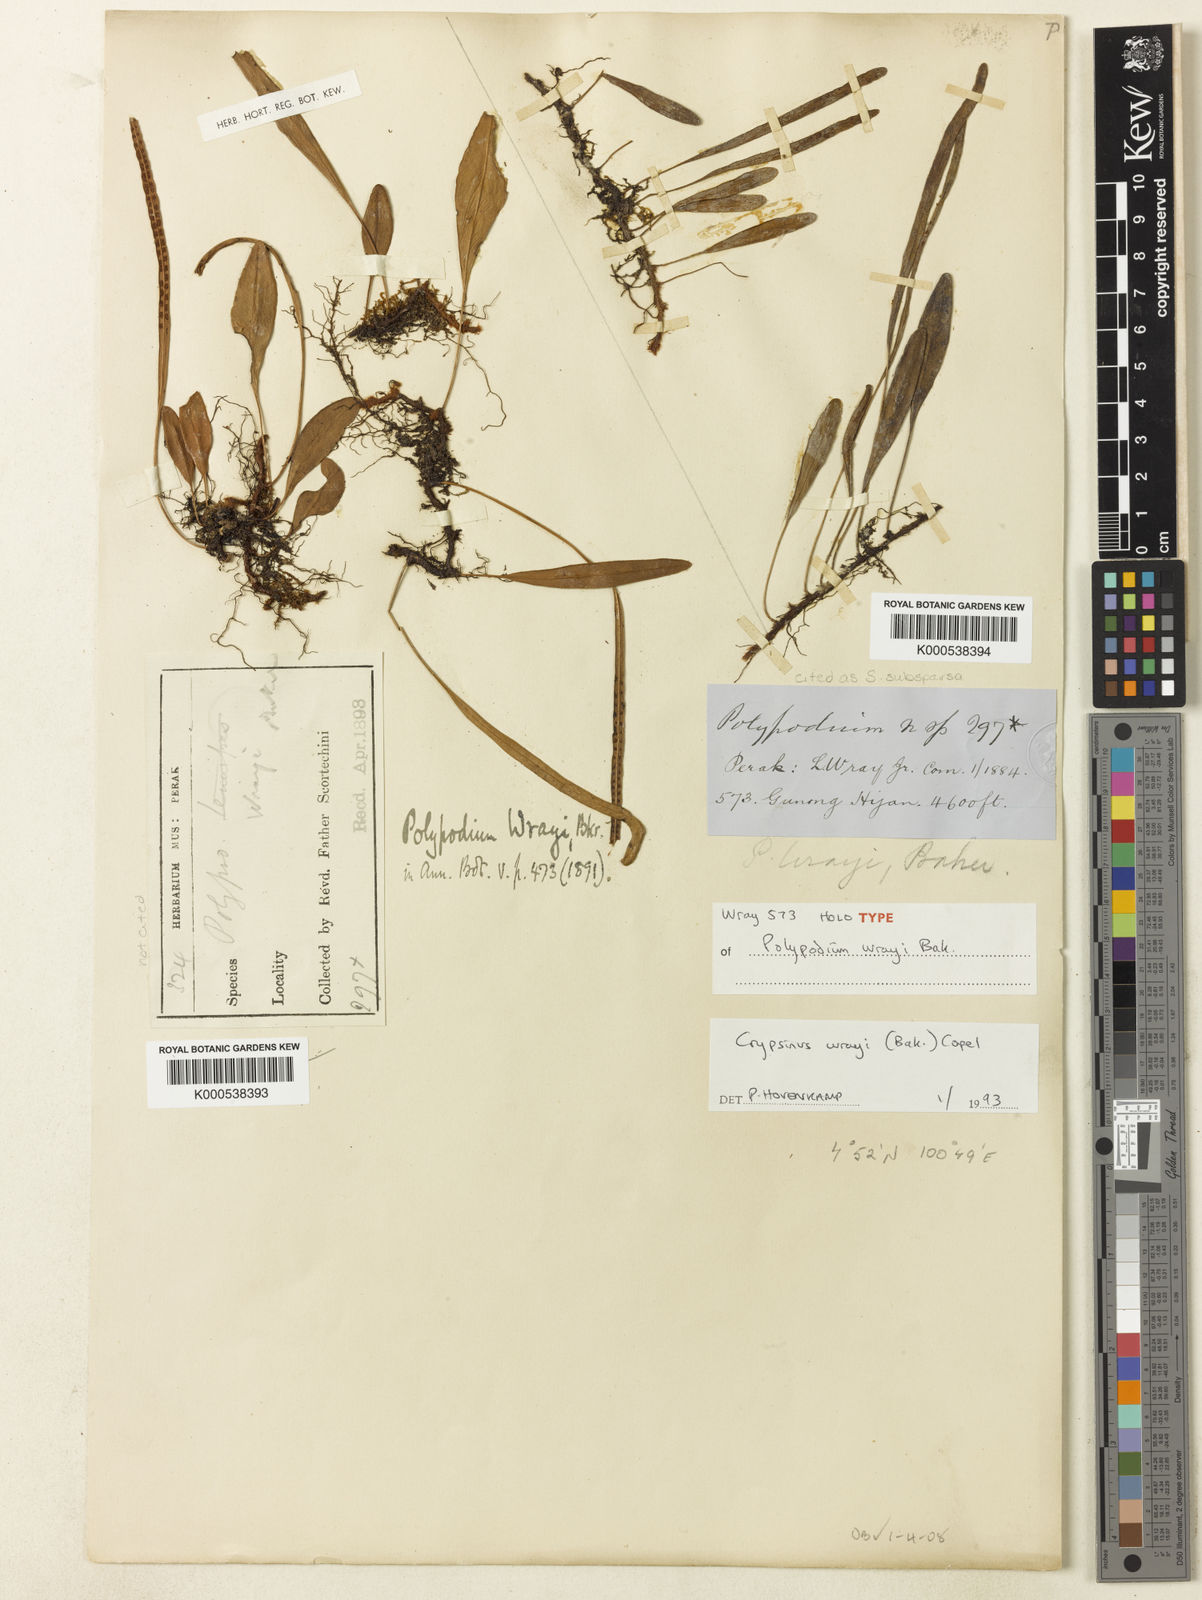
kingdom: Plantae
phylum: Tracheophyta
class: Polypodiopsida
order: Polypodiales
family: Polypodiaceae
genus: Selliguea
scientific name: Selliguea
